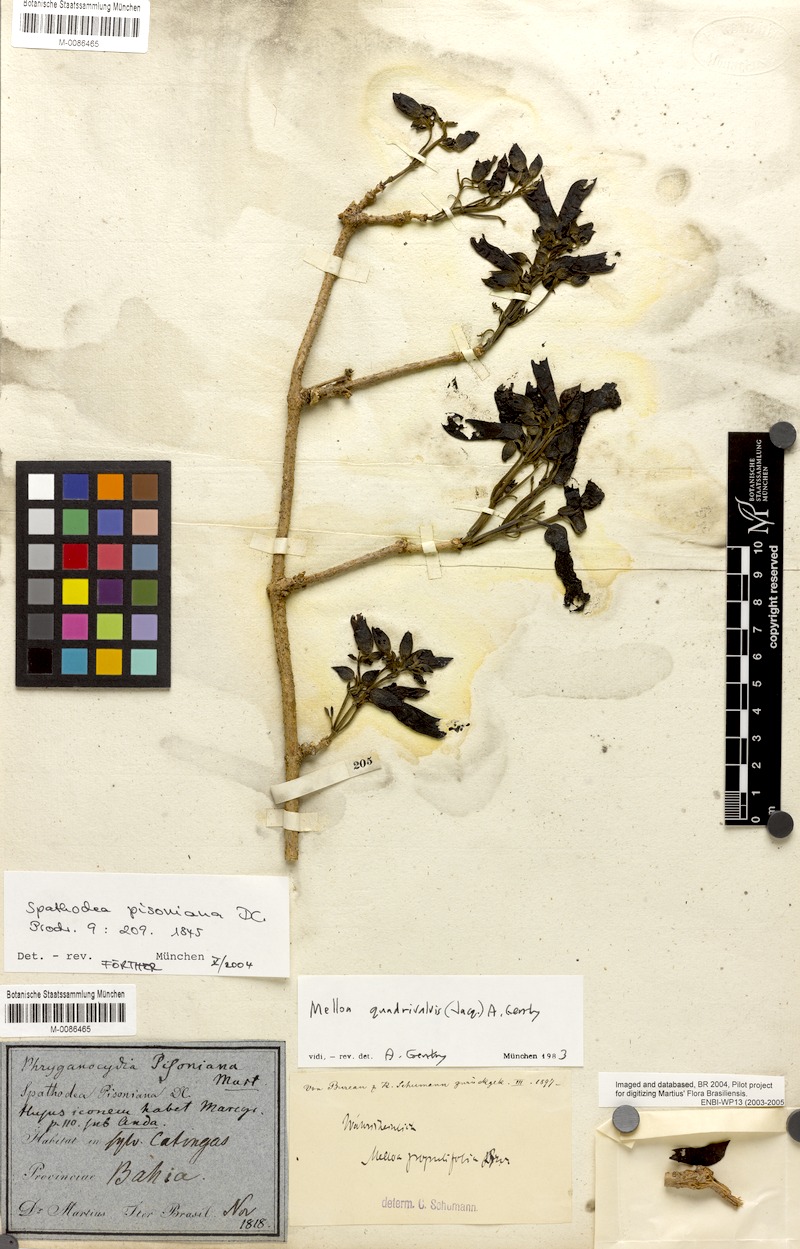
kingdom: Plantae
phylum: Tracheophyta
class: Magnoliopsida
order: Lamiales
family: Bignoniaceae
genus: Dolichandra
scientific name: Dolichandra quadrivalvis
